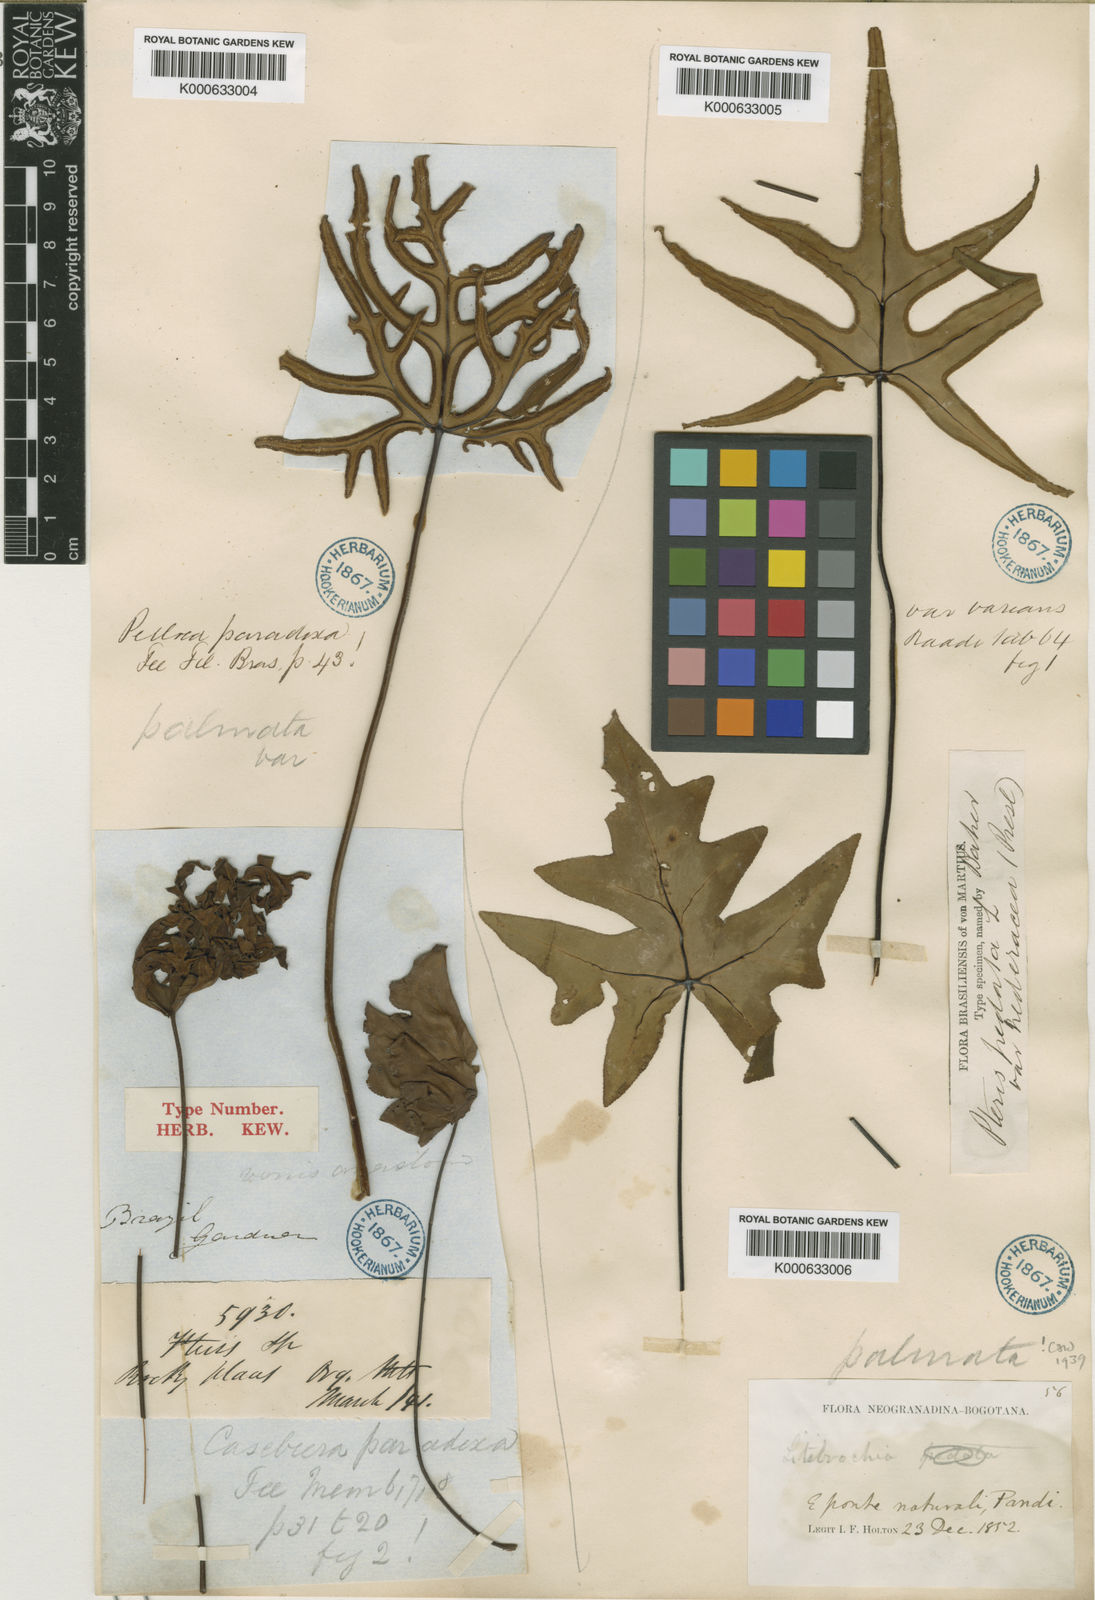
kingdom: Plantae
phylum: Tracheophyta
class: Polypodiopsida
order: Polypodiales
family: Pteridaceae
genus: Pellaea
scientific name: Pellaea
